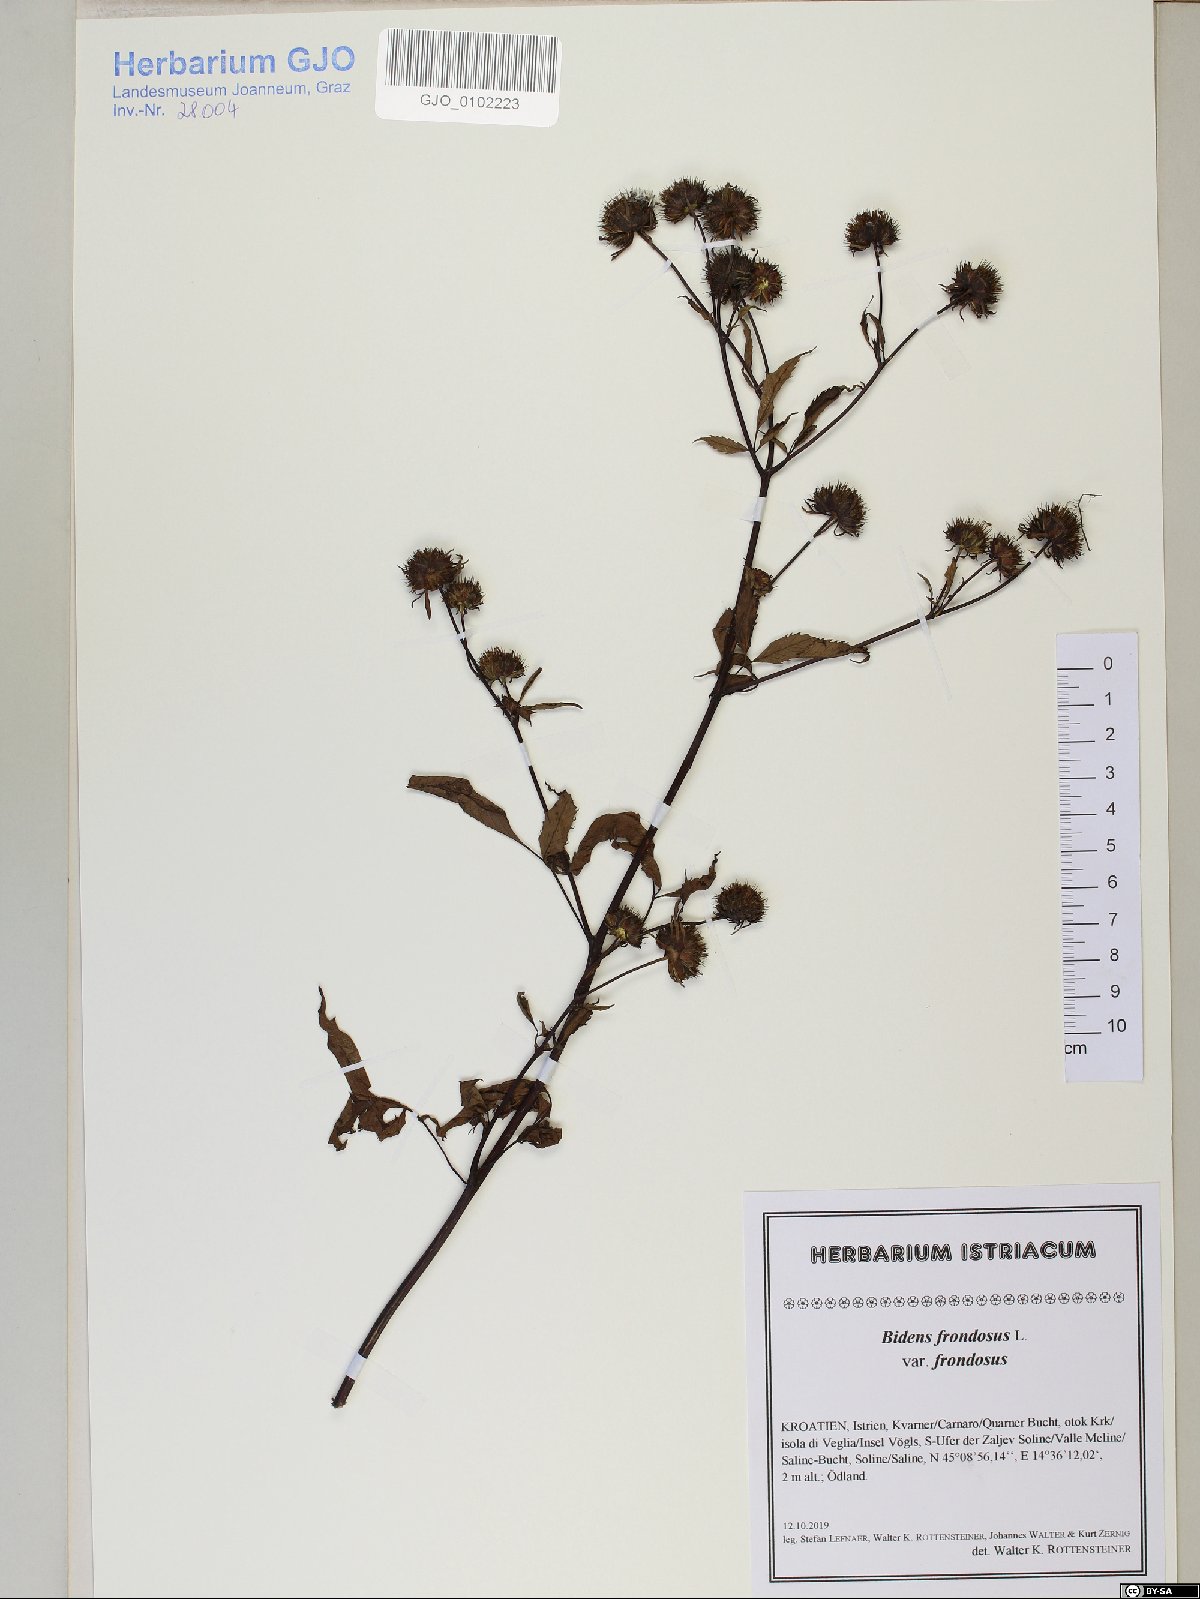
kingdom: Plantae
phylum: Tracheophyta
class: Magnoliopsida
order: Asterales
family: Asteraceae
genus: Bidens
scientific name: Bidens frondosa
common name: Beggarticks
